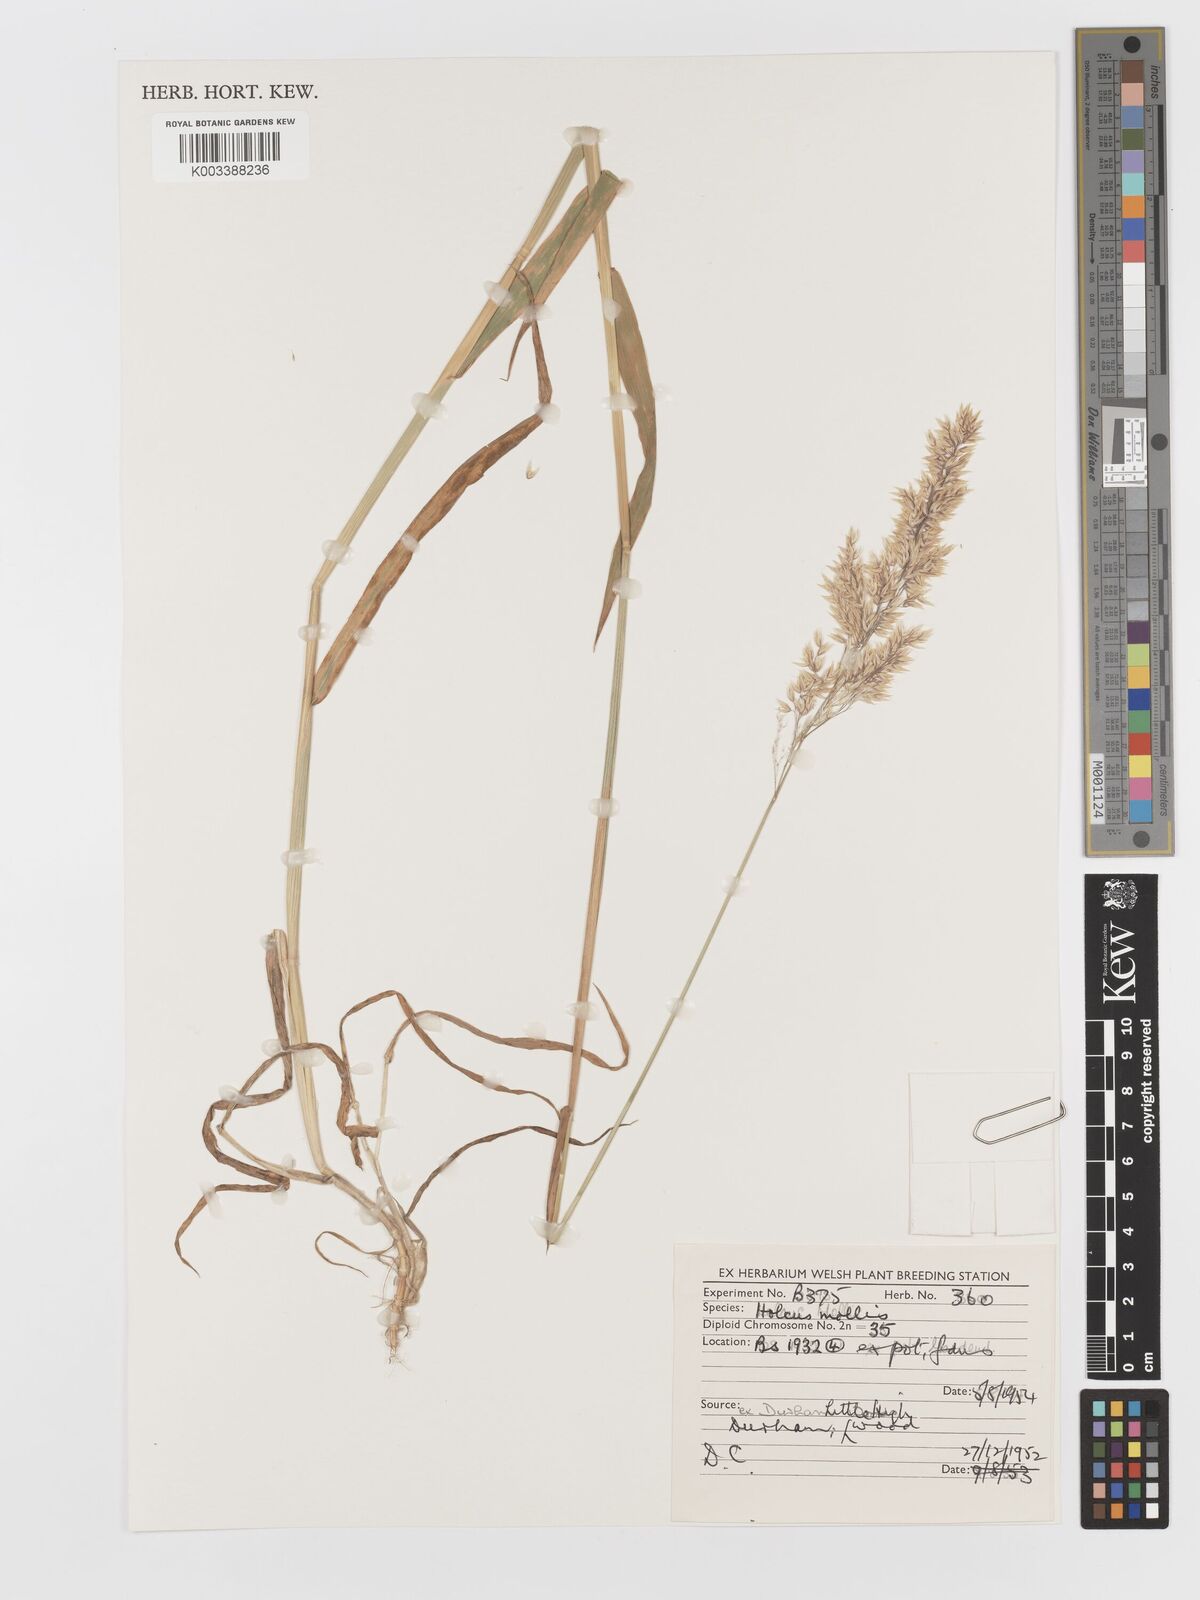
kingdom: Plantae
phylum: Tracheophyta
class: Liliopsida
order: Poales
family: Poaceae
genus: Holcus
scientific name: Holcus mollis
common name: Creeping velvetgrass
